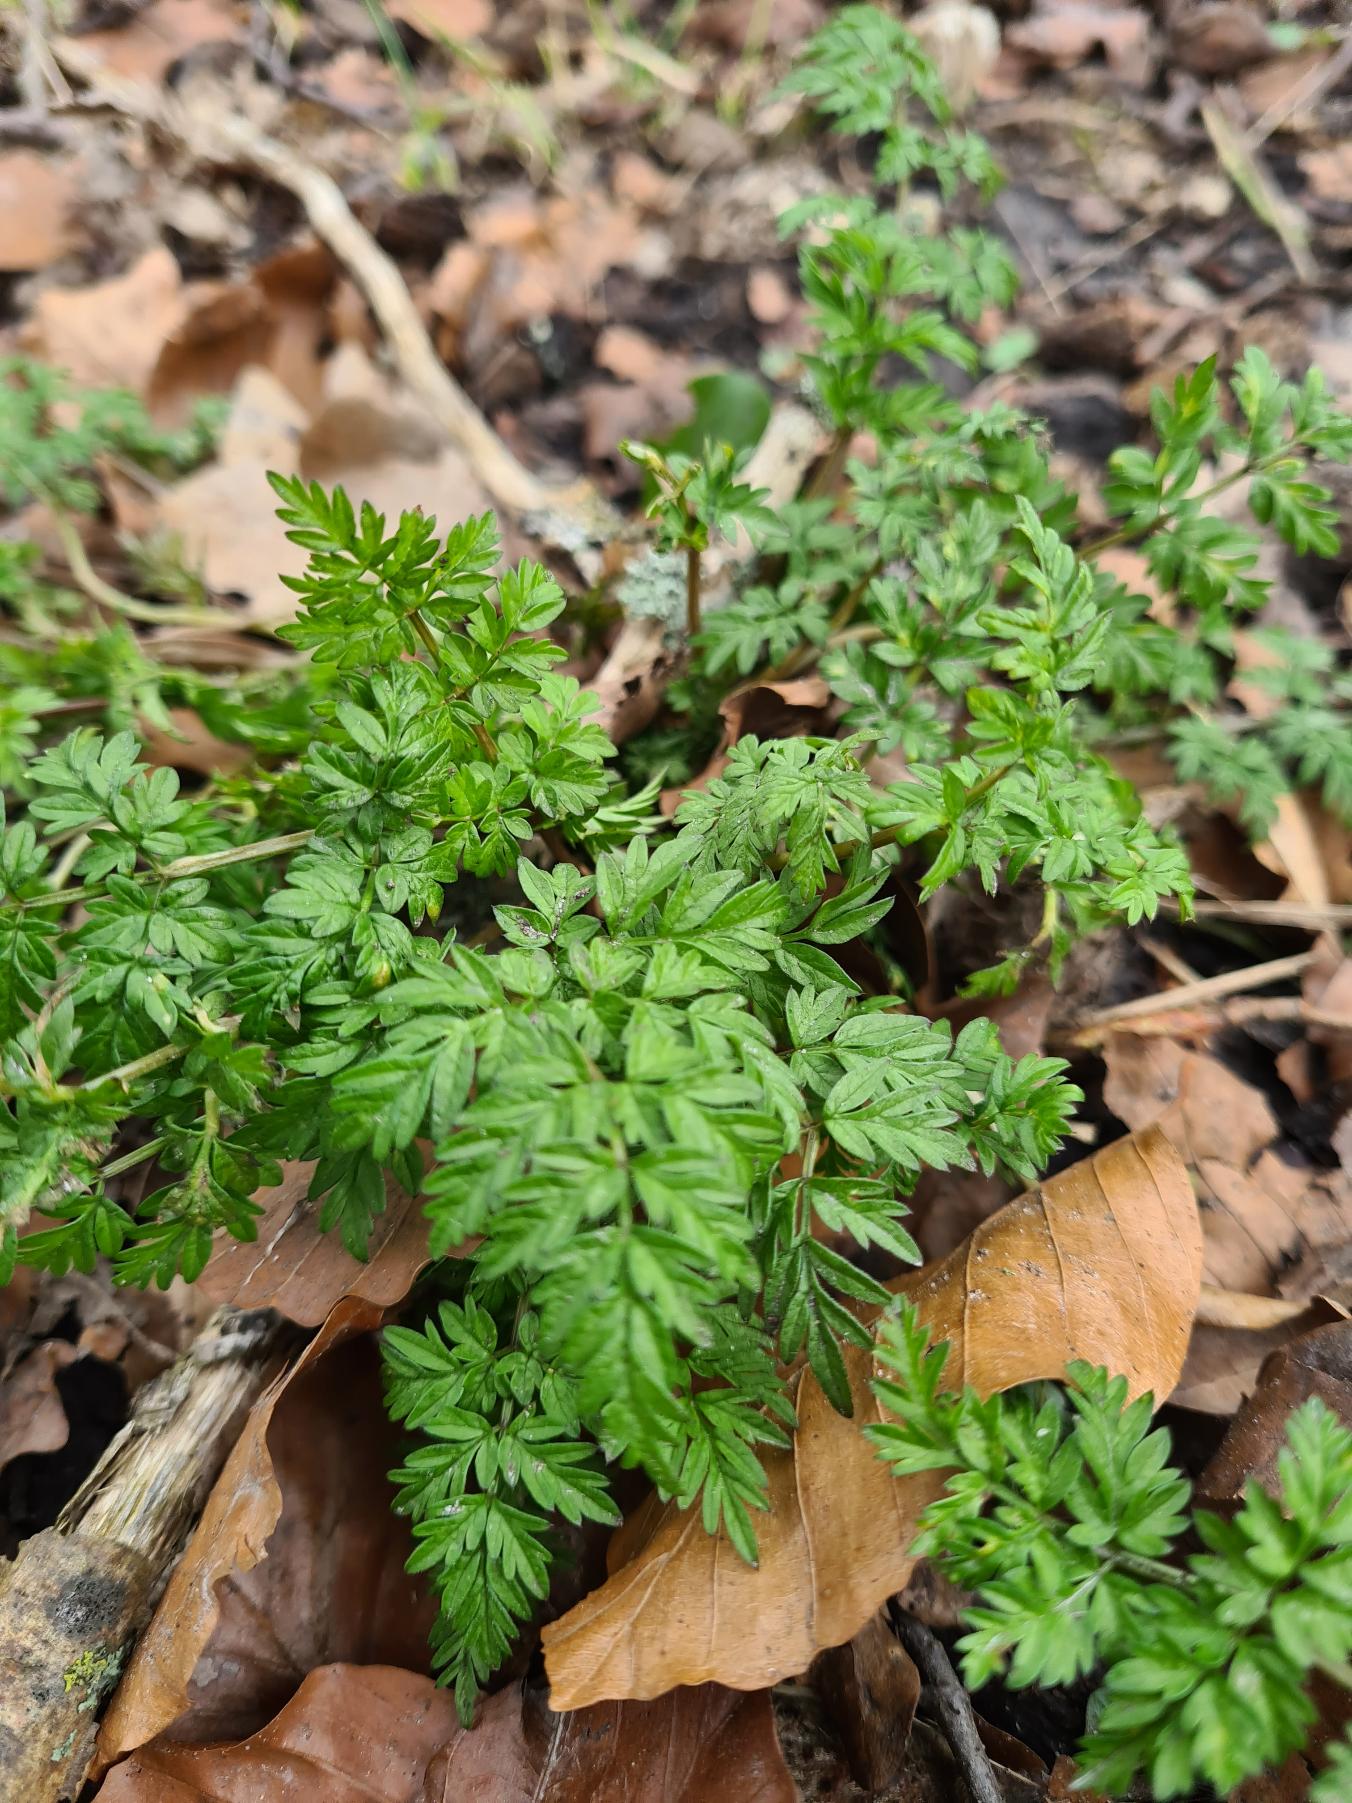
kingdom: Plantae
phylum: Tracheophyta
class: Magnoliopsida
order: Apiales
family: Apiaceae
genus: Anthriscus
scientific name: Anthriscus sylvestris
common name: Vild kørvel
